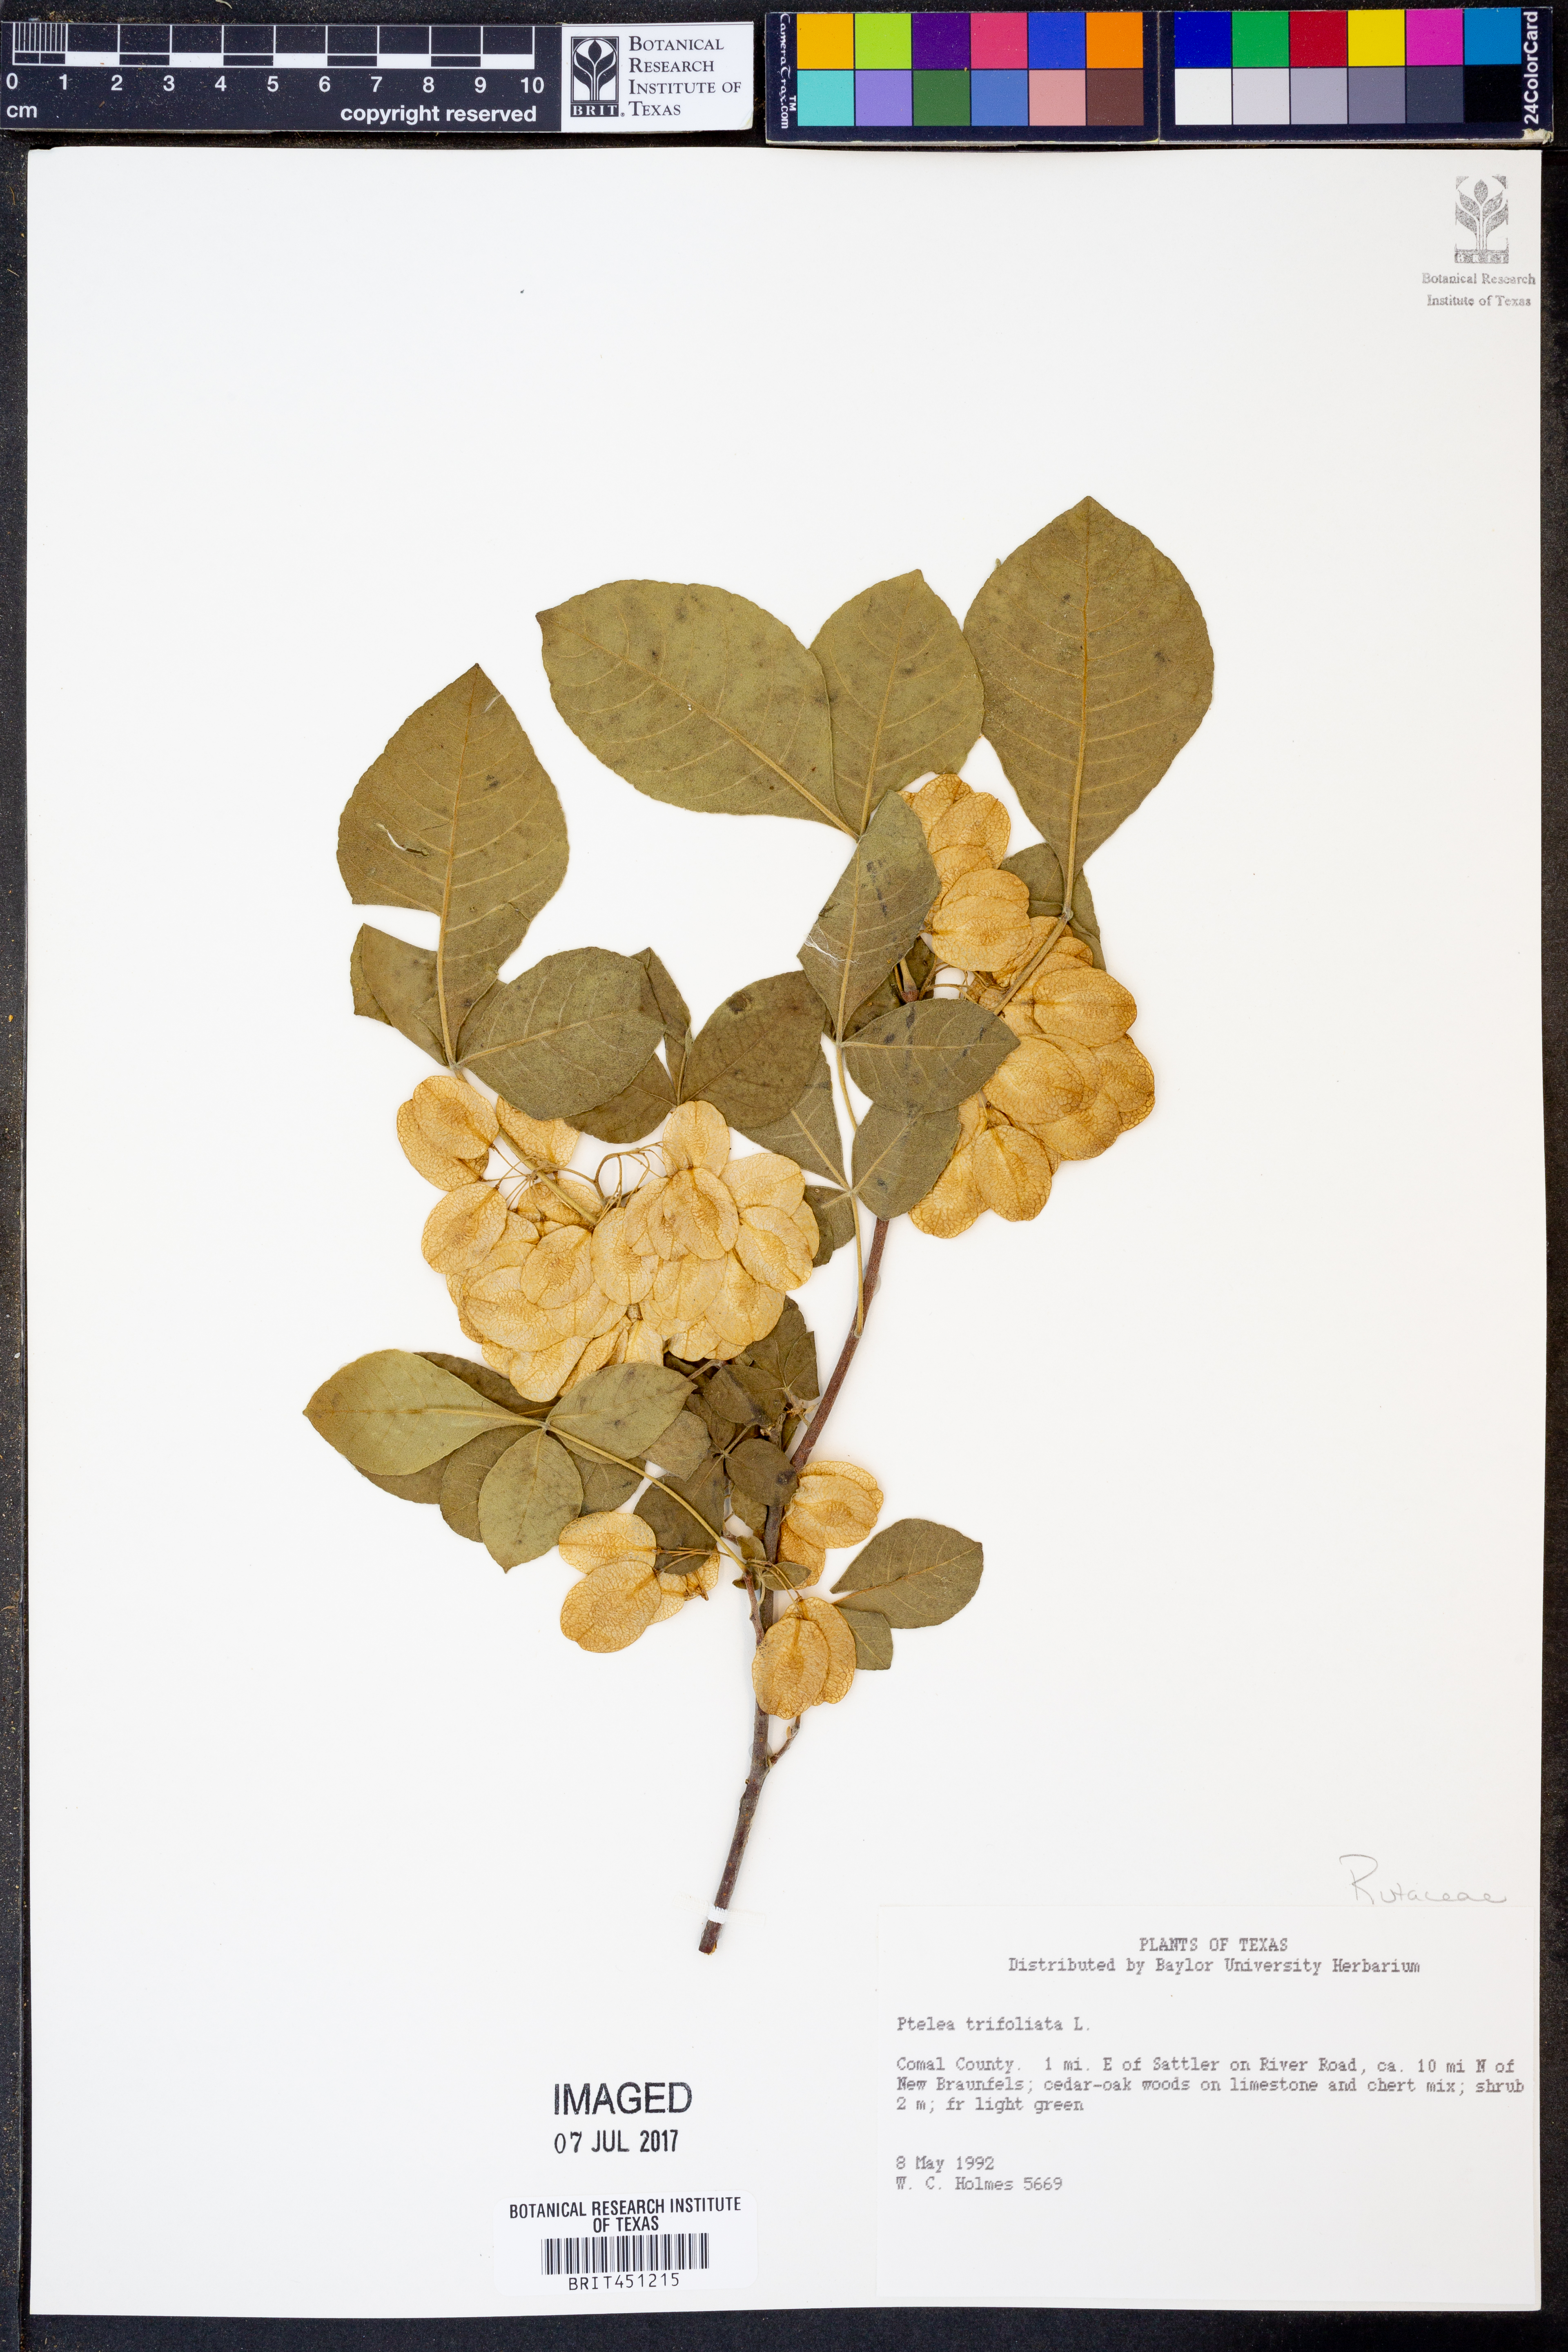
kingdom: Plantae
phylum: Tracheophyta
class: Magnoliopsida
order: Sapindales
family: Rutaceae
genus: Ptelea
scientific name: Ptelea trifoliata
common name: Common hop-tree
